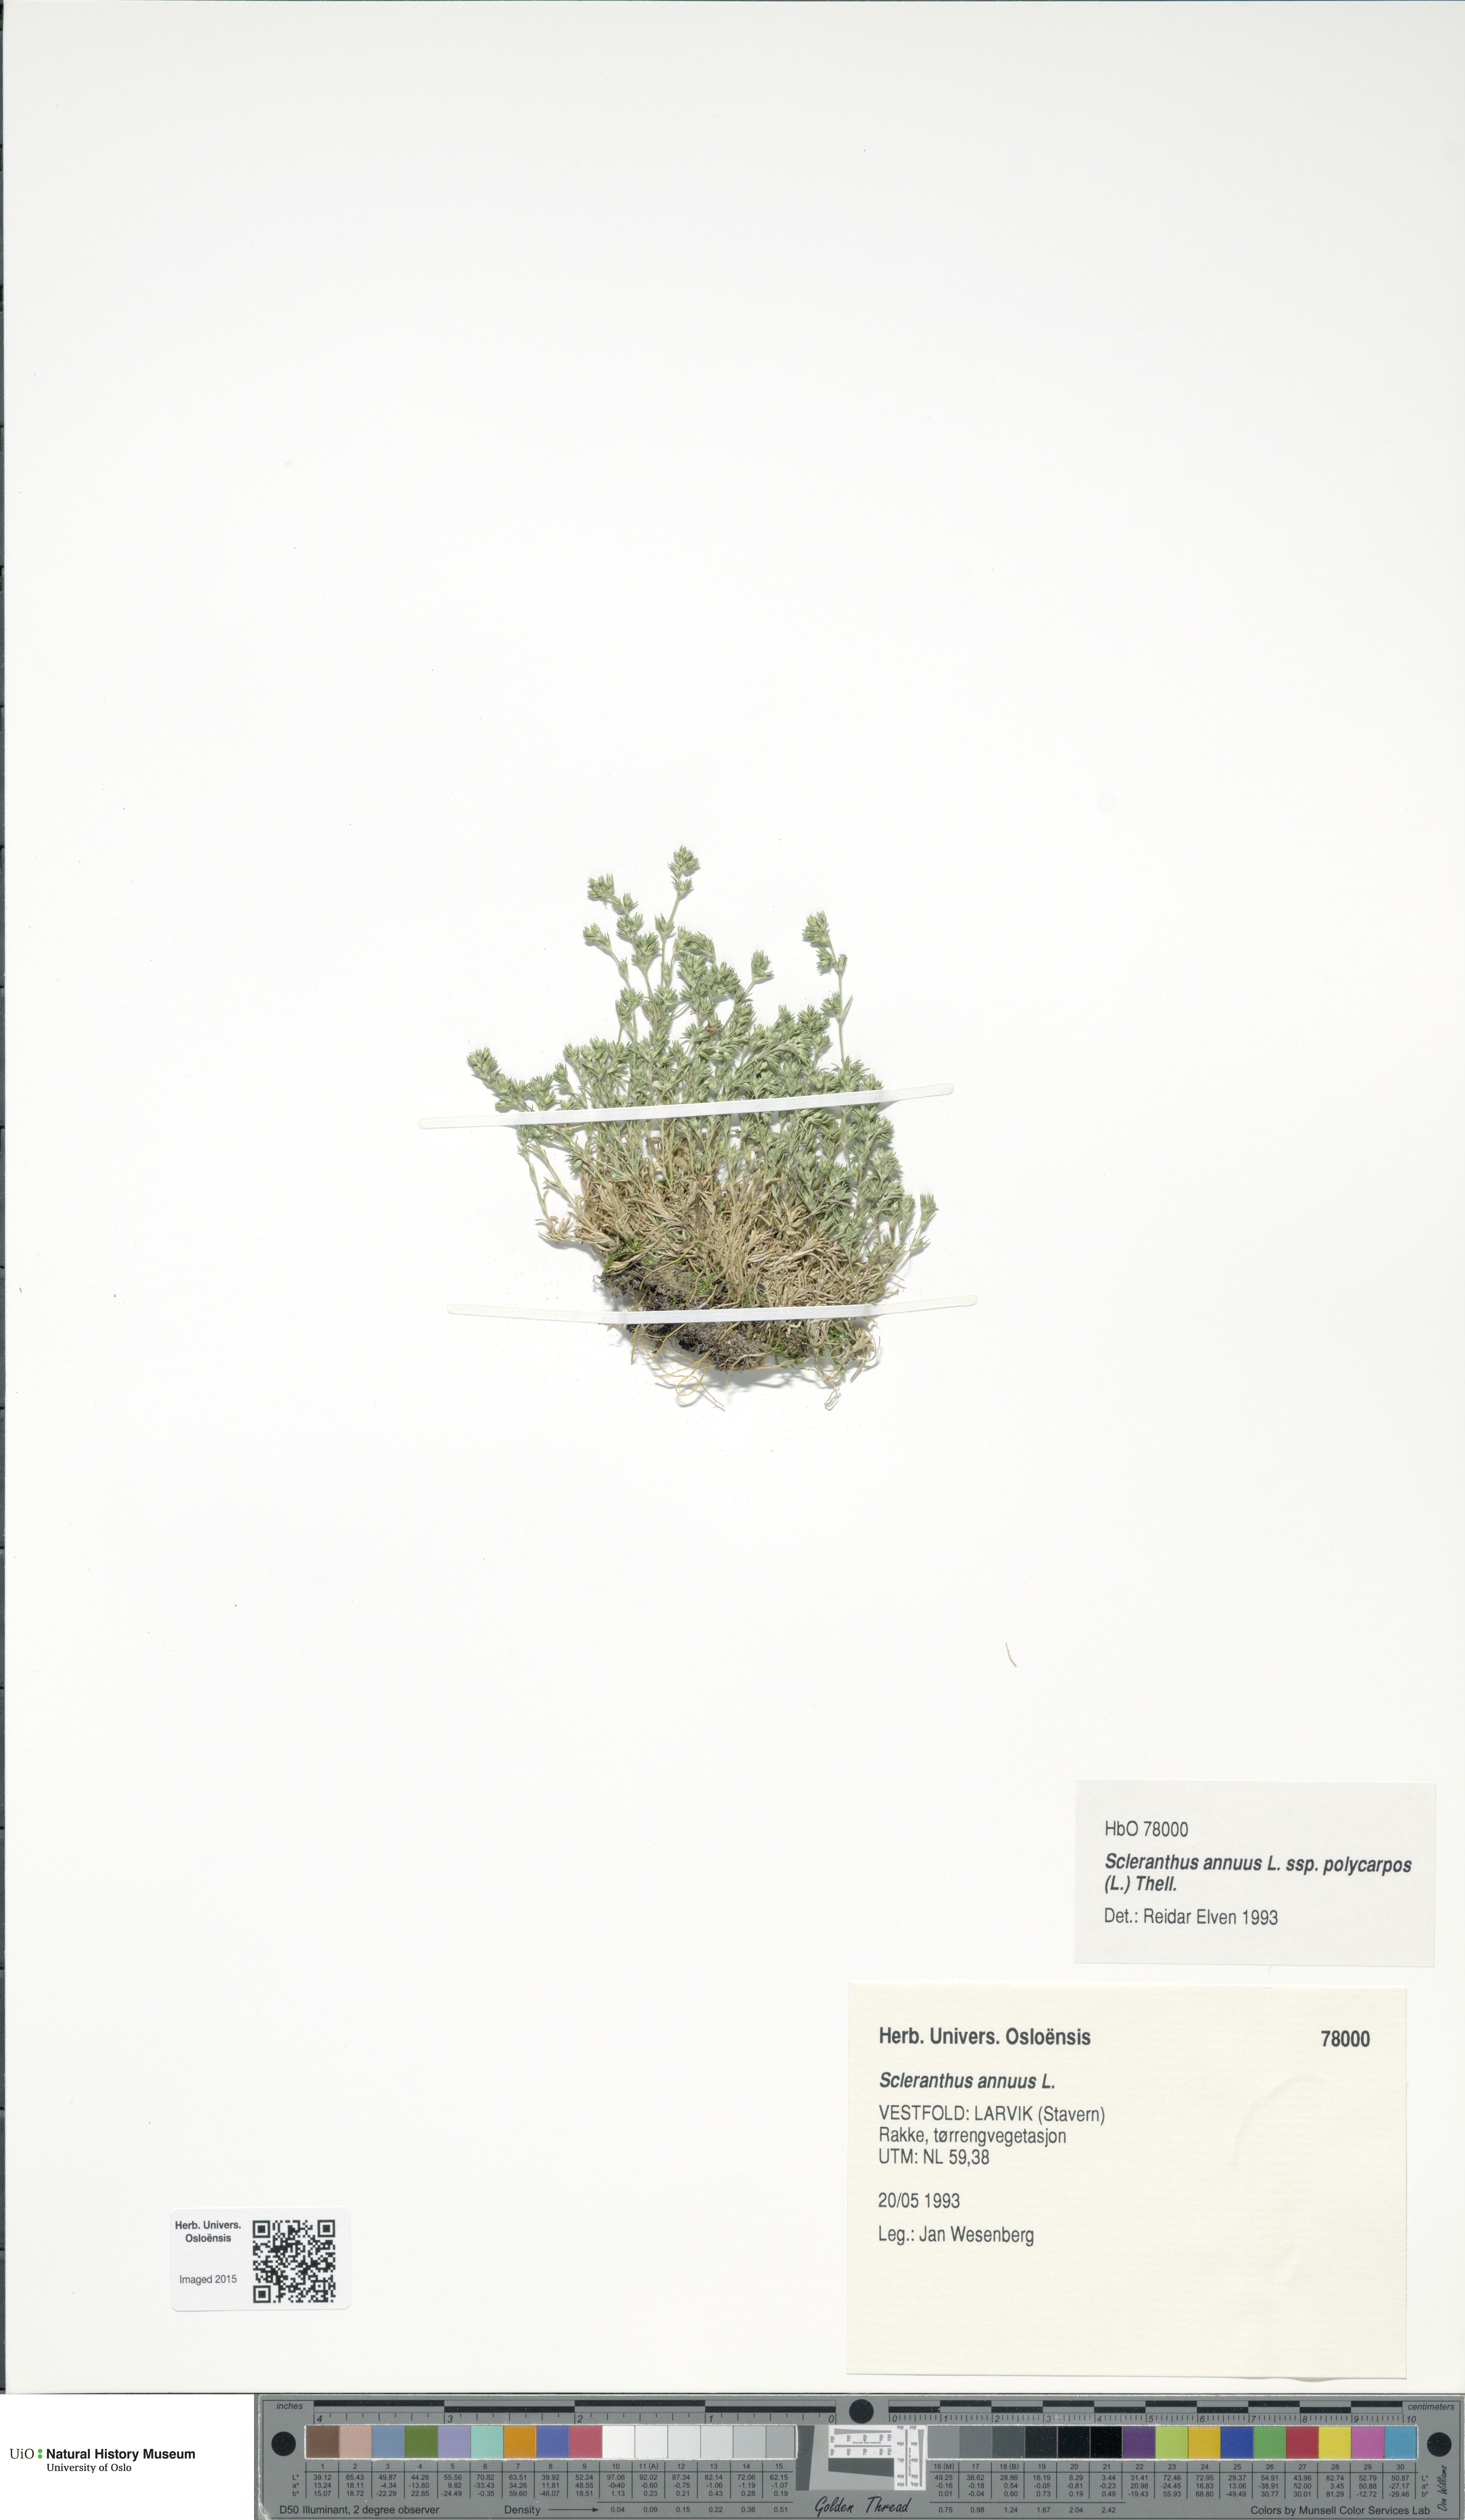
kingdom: Plantae
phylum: Tracheophyta
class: Magnoliopsida
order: Caryophyllales
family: Caryophyllaceae
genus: Scleranthus
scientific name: Scleranthus annuus
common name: Annual knawel
